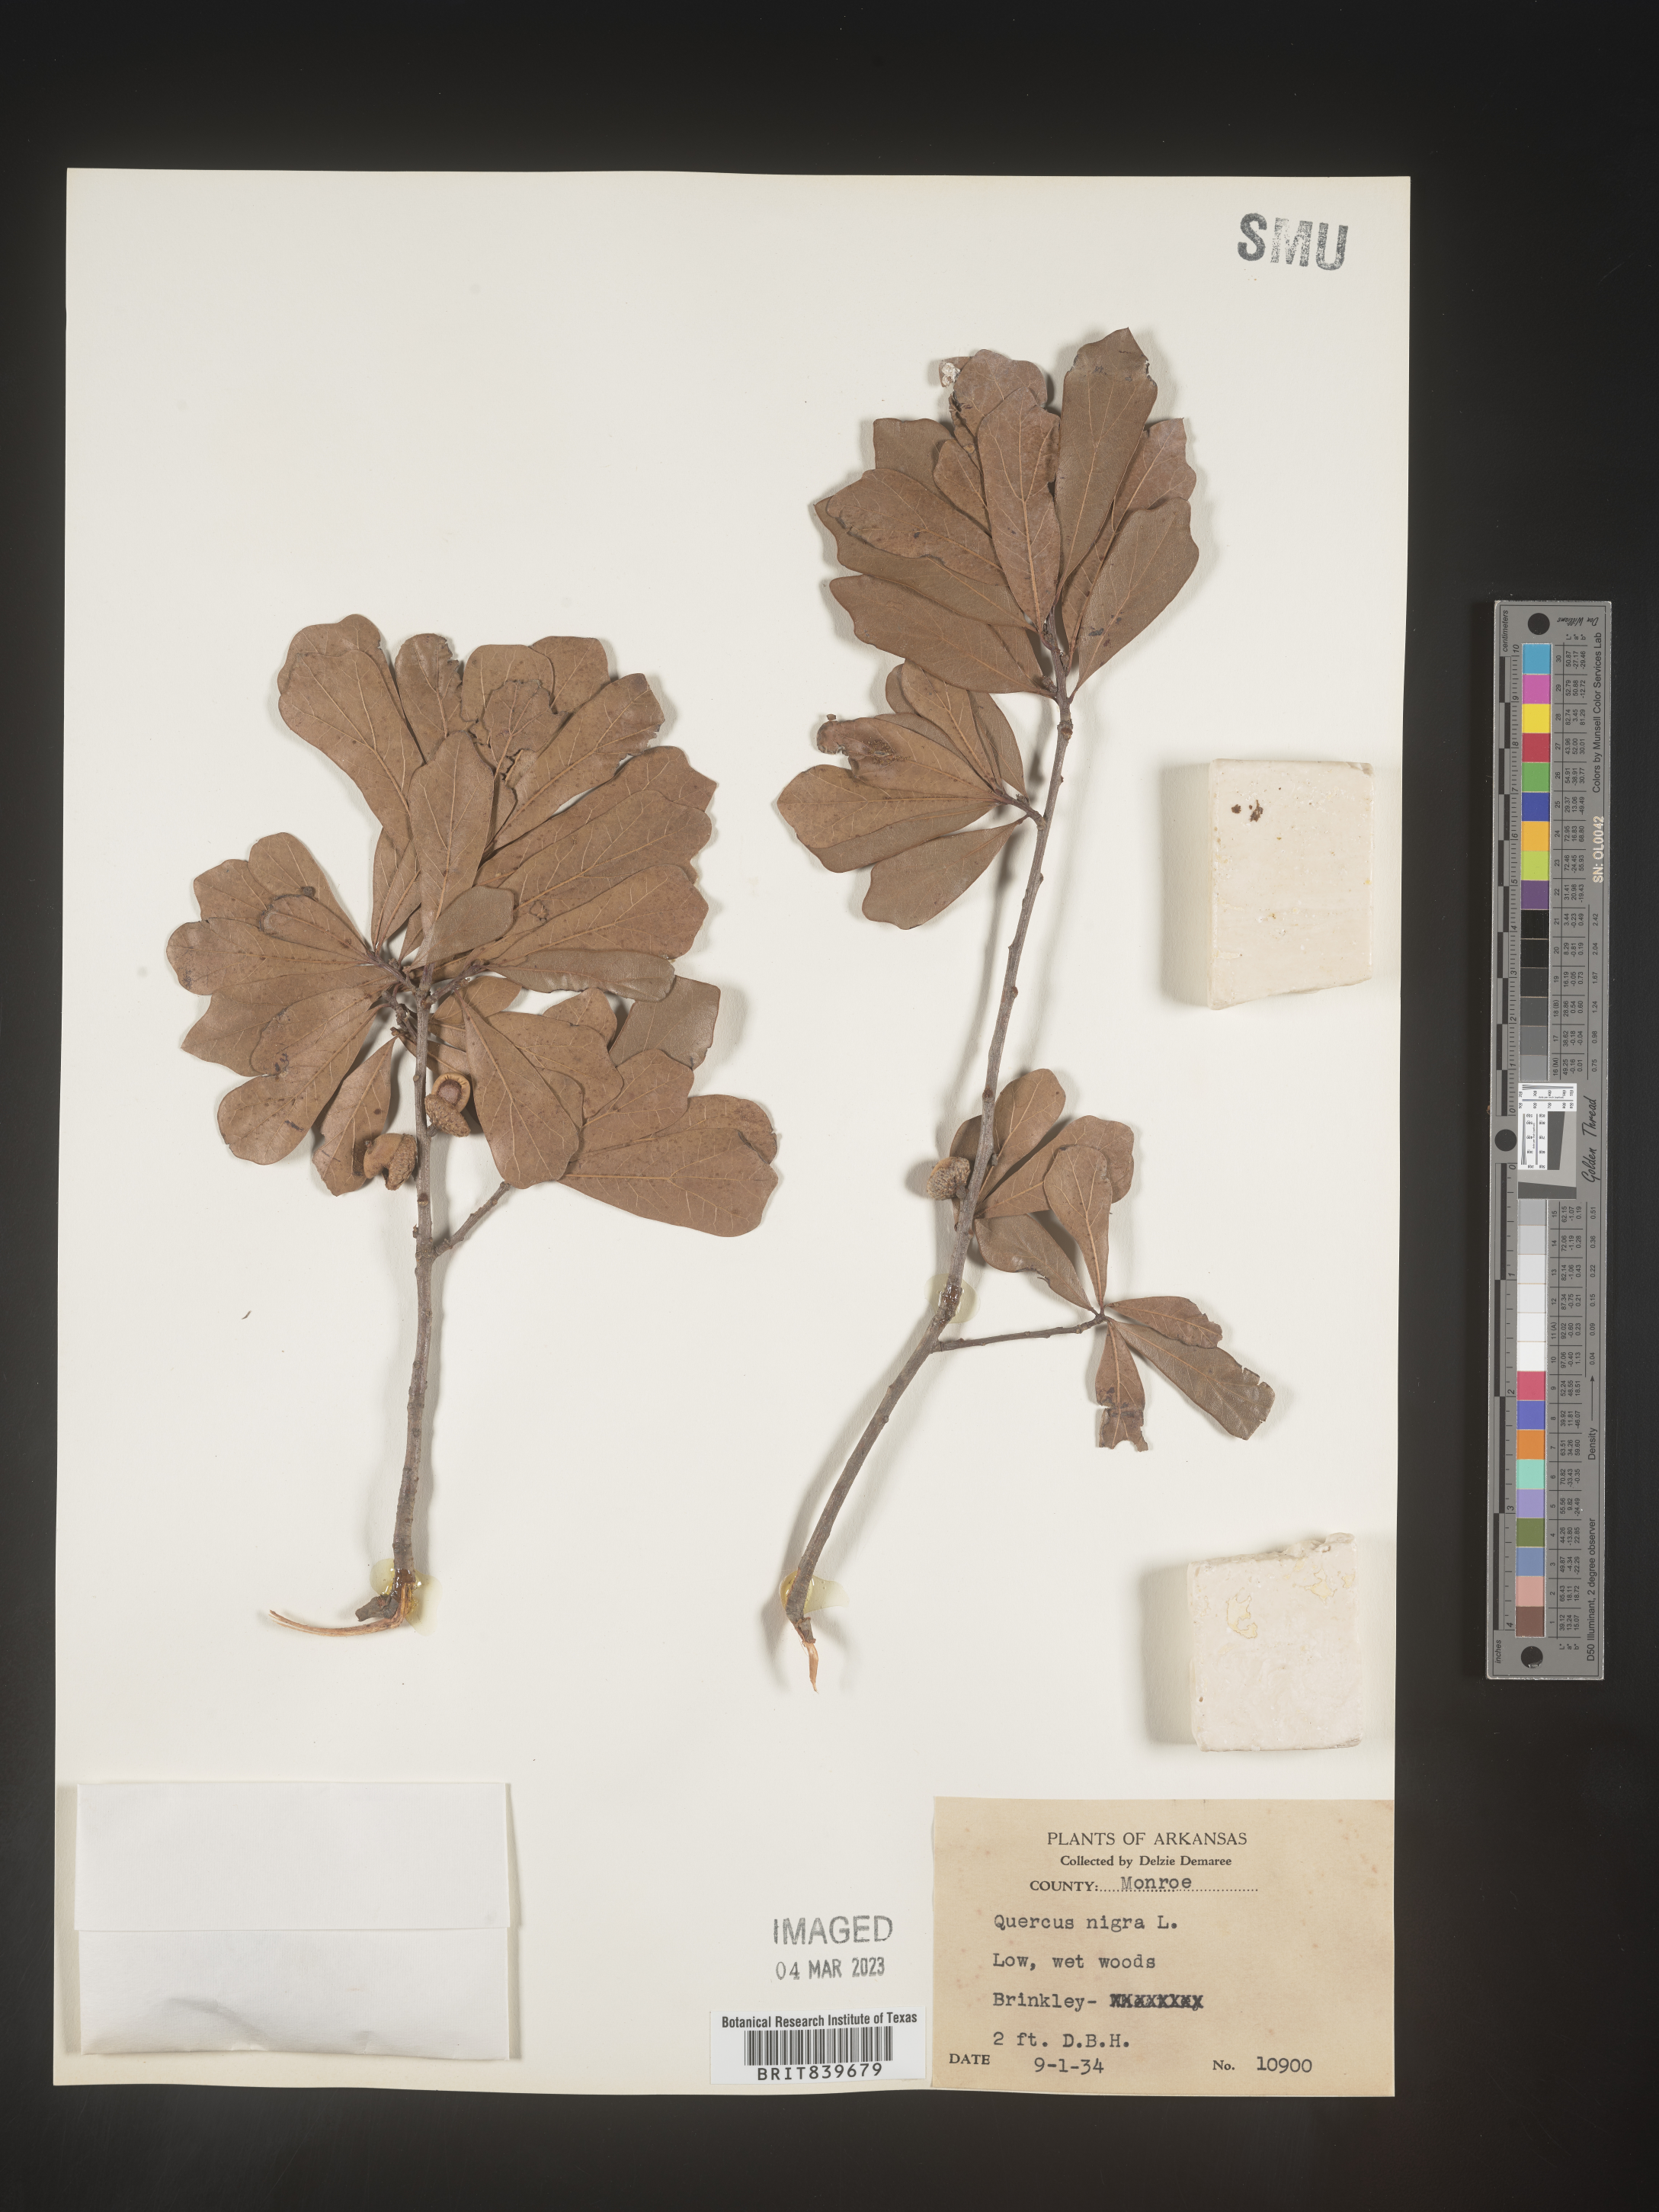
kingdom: Plantae
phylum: Tracheophyta
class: Magnoliopsida
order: Fagales
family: Fagaceae
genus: Quercus
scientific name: Quercus nigra
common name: Water oak
